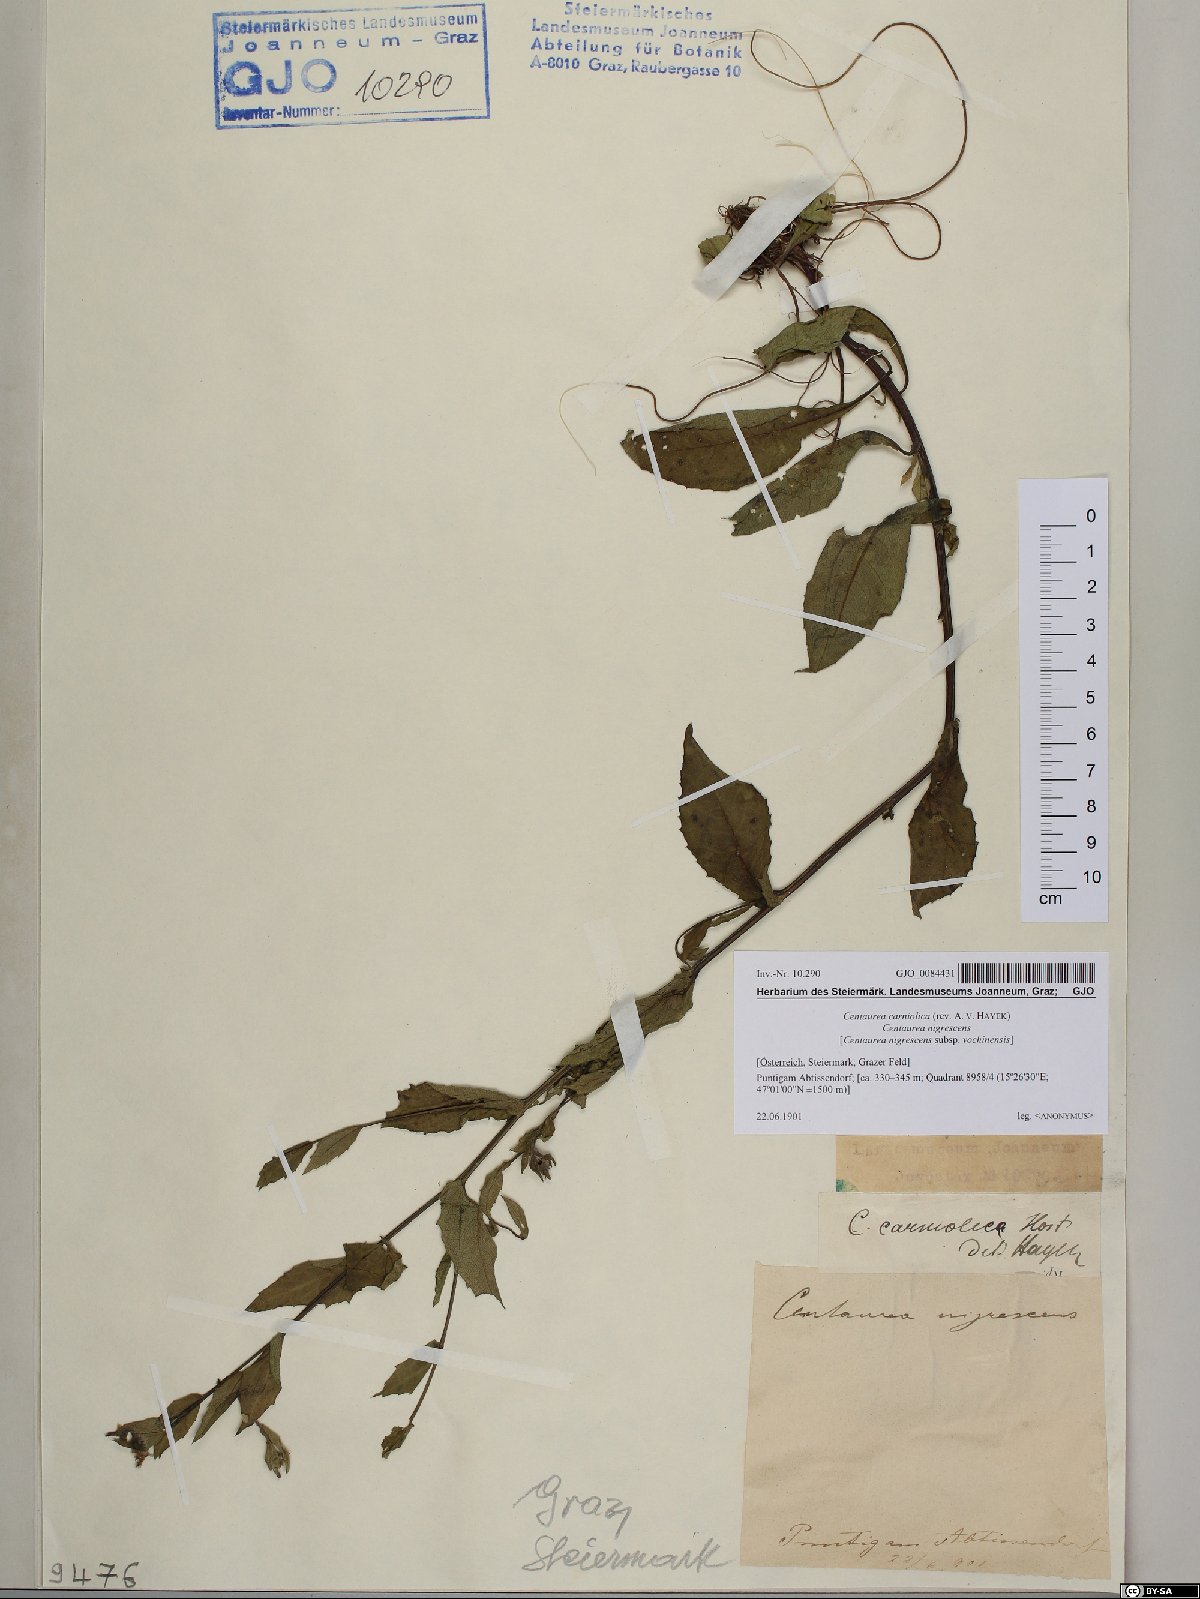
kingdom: Plantae
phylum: Tracheophyta
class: Magnoliopsida
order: Asterales
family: Asteraceae
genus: Centaurea
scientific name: Centaurea carniolica
